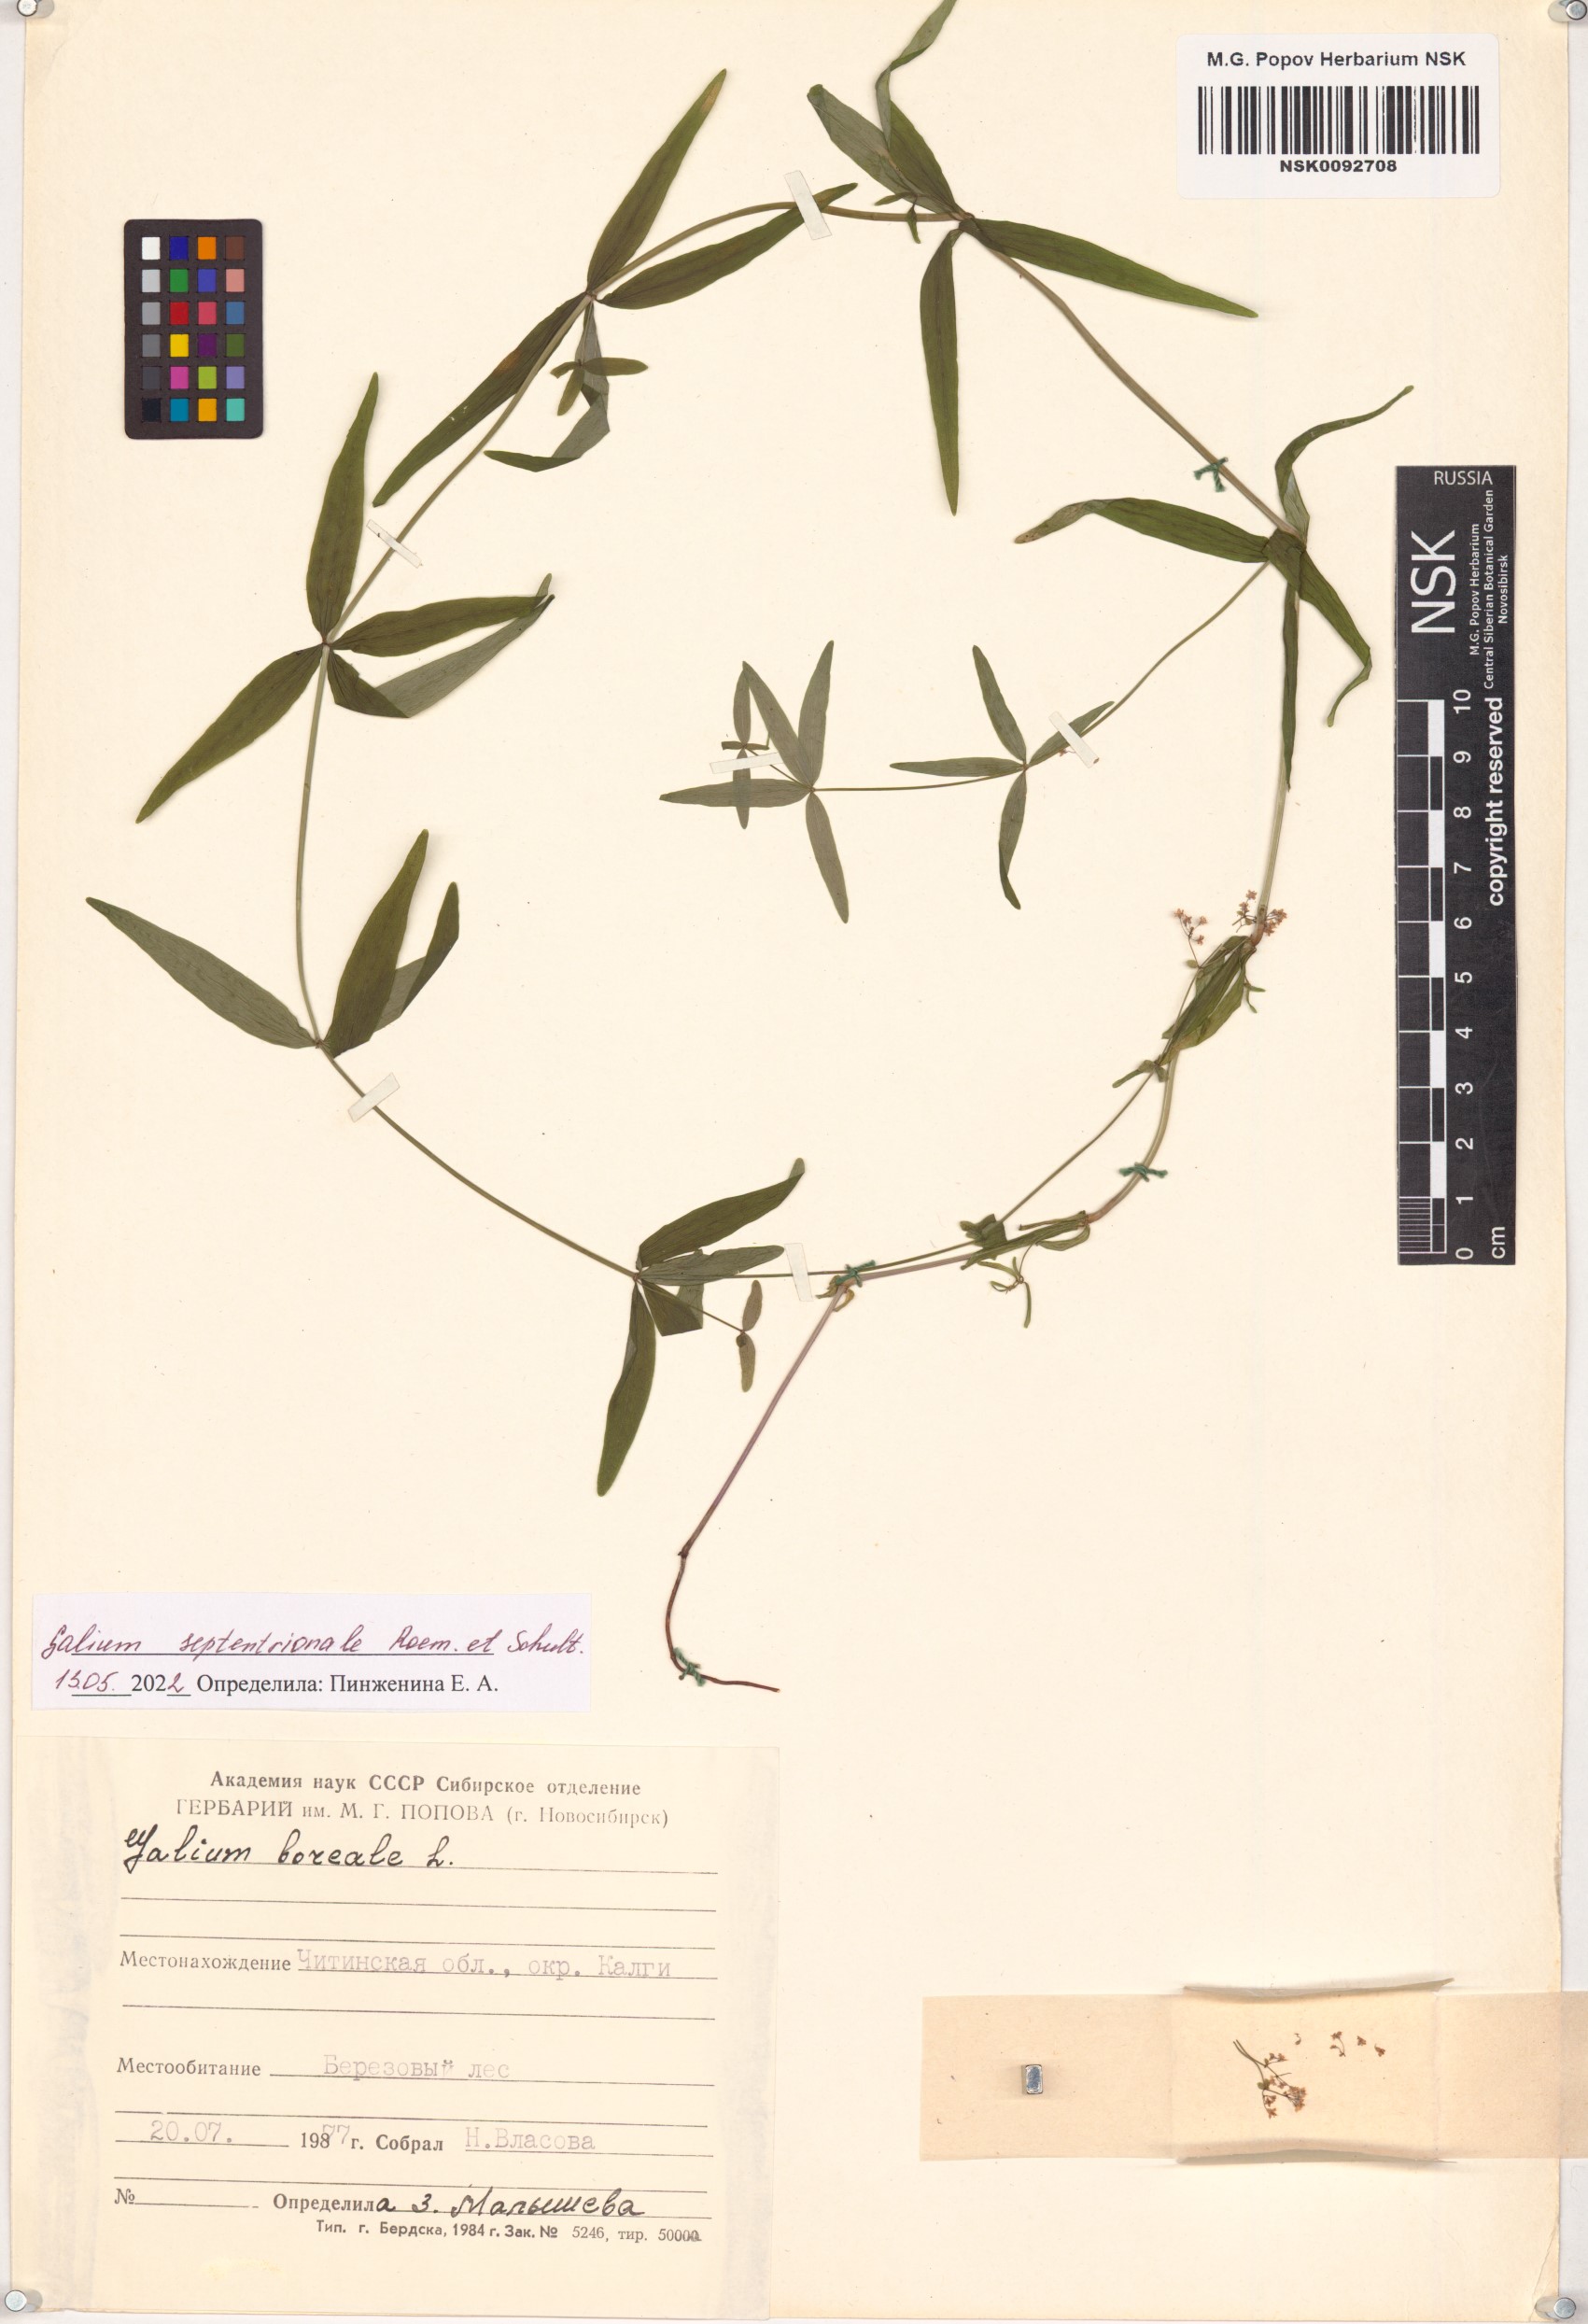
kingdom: Plantae
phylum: Tracheophyta
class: Magnoliopsida
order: Gentianales
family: Rubiaceae
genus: Galium
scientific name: Galium boreale
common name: Northern bedstraw
